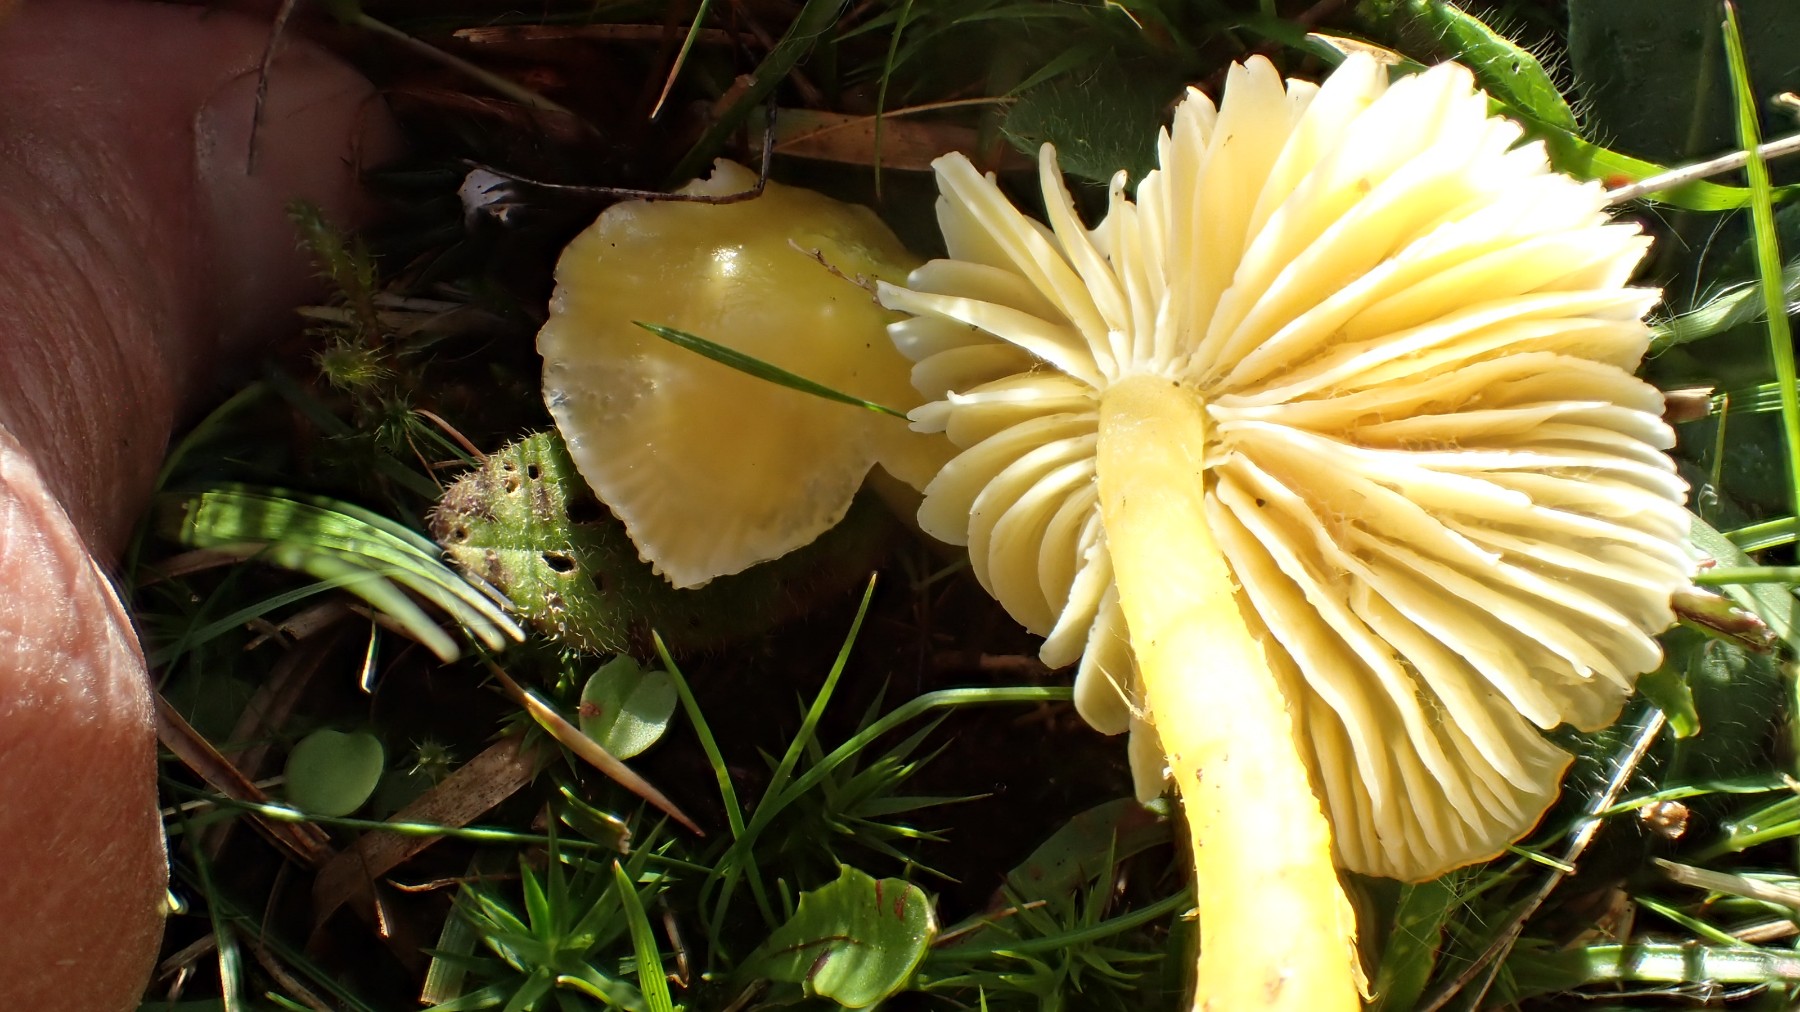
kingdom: Fungi
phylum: Basidiomycota
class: Agaricomycetes
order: Agaricales
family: Hygrophoraceae
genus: Hygrocybe
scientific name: Hygrocybe chlorophana
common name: gul vokshat
